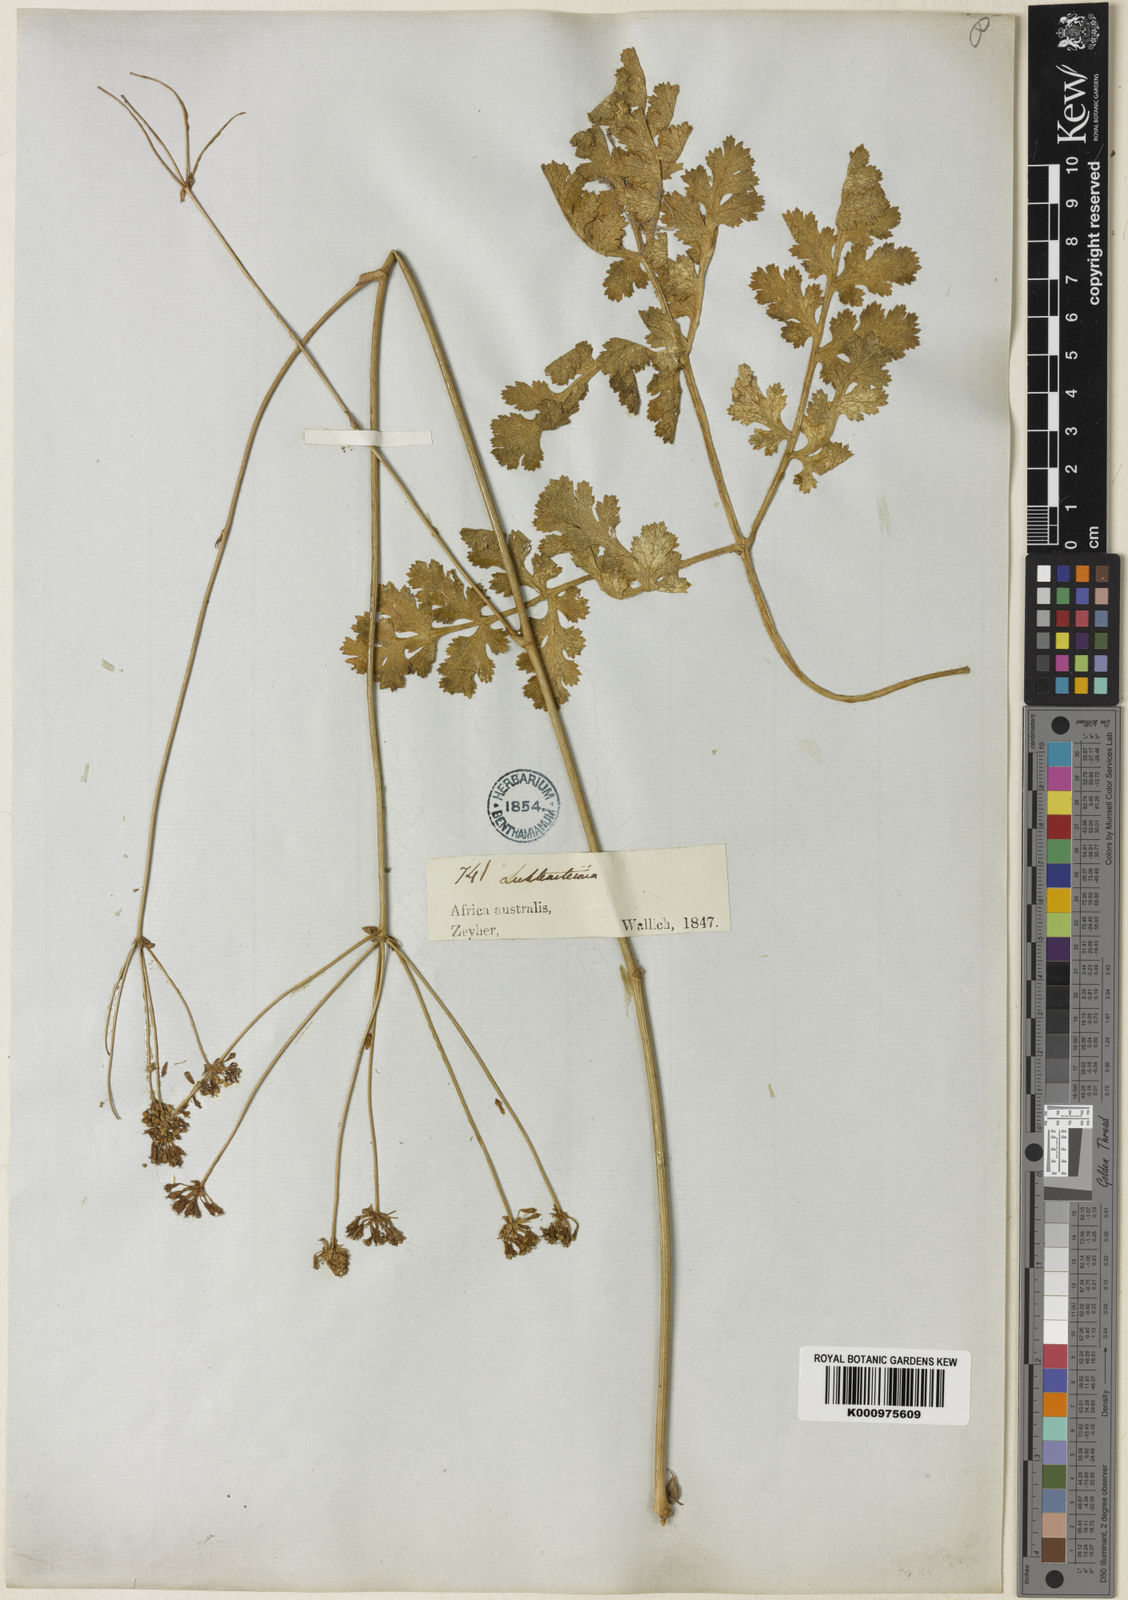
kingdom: Plantae
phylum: Tracheophyta
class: Magnoliopsida
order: Apiales
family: Apiaceae
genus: Annesorhiza
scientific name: Annesorhiza
